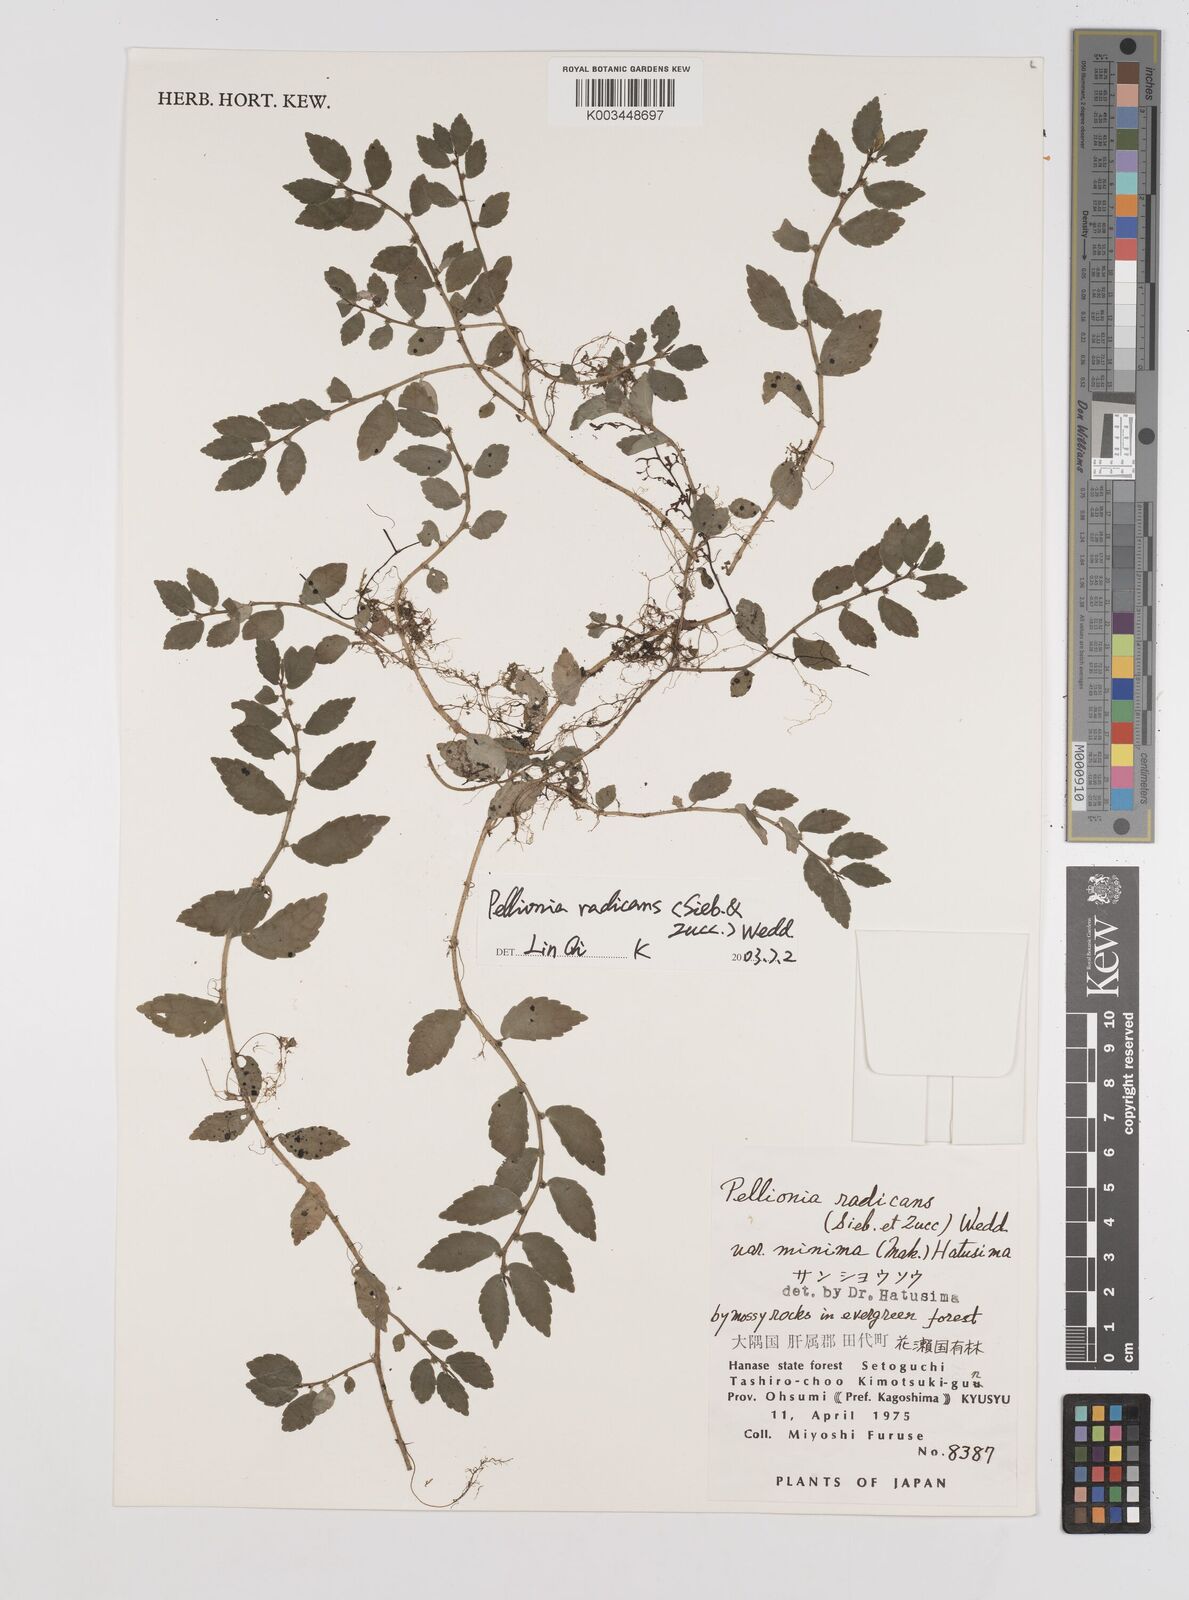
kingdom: Plantae
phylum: Tracheophyta
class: Magnoliopsida
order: Rosales
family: Urticaceae
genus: Elatostema
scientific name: Elatostema radicans
